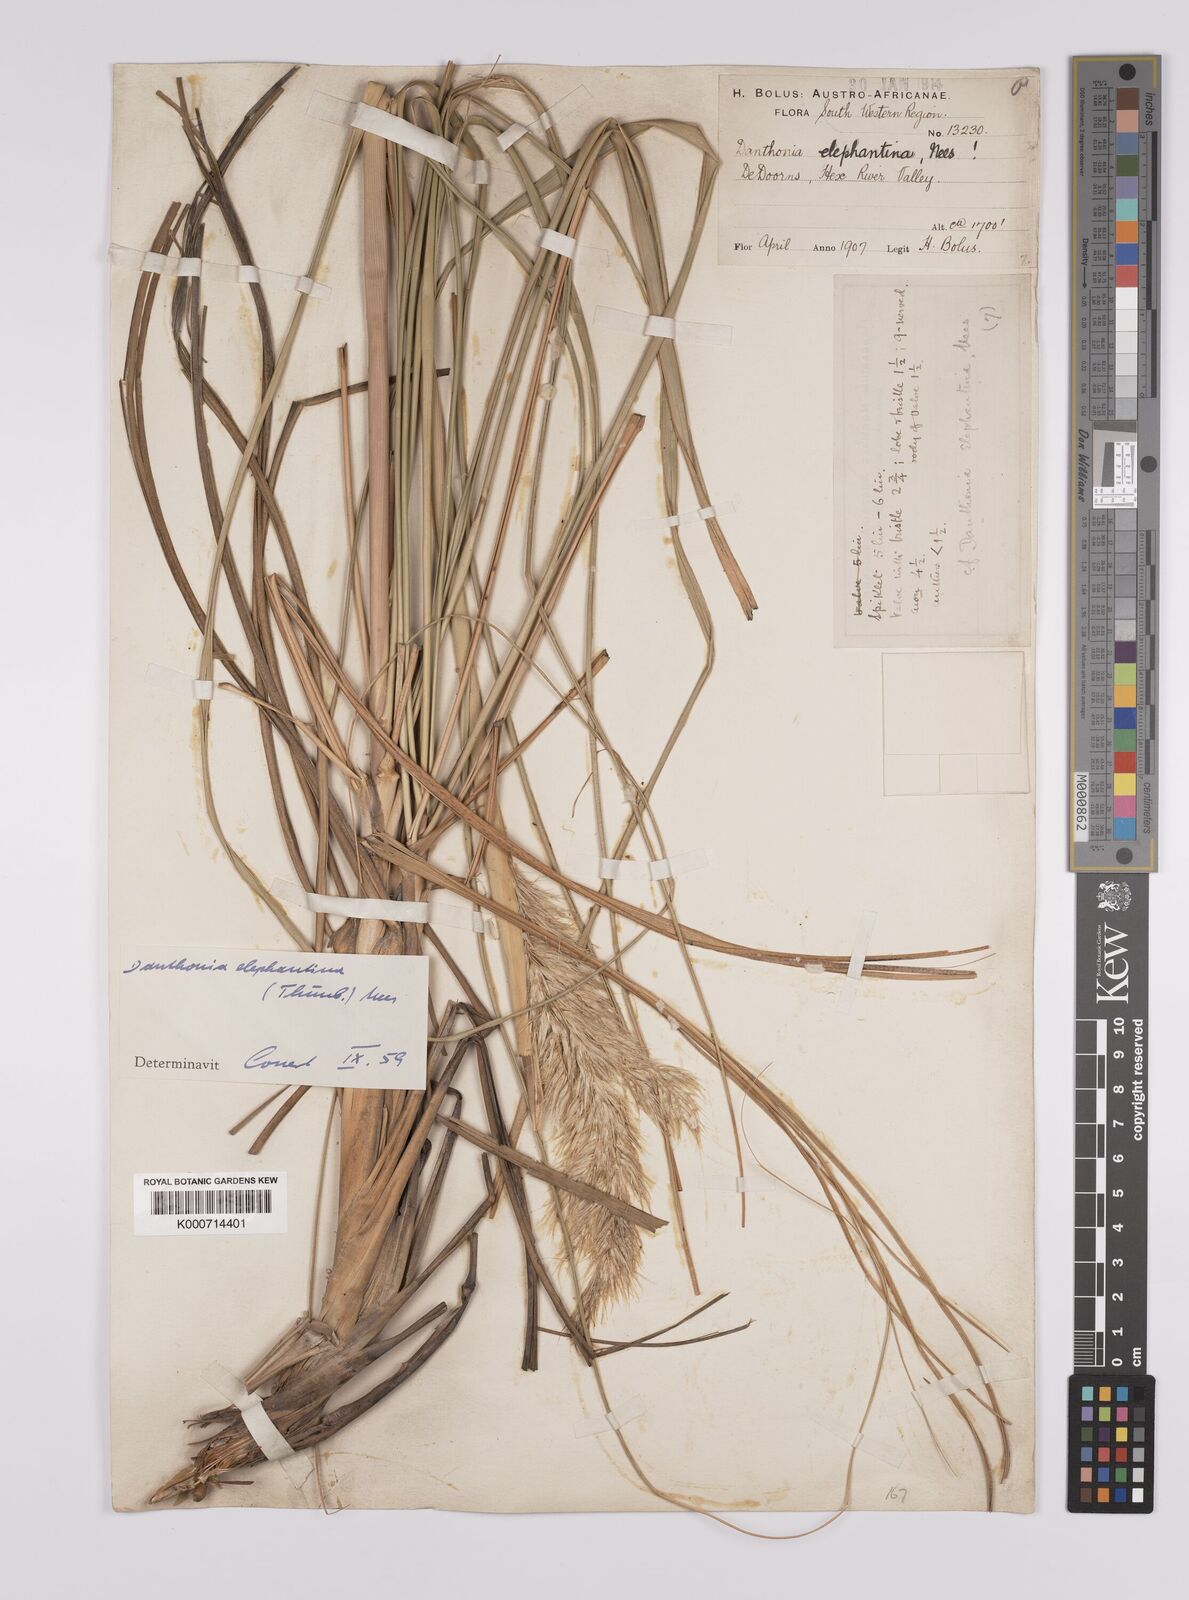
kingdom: Plantae
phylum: Tracheophyta
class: Liliopsida
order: Poales
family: Poaceae
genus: Rytidosperma
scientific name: Rytidosperma
